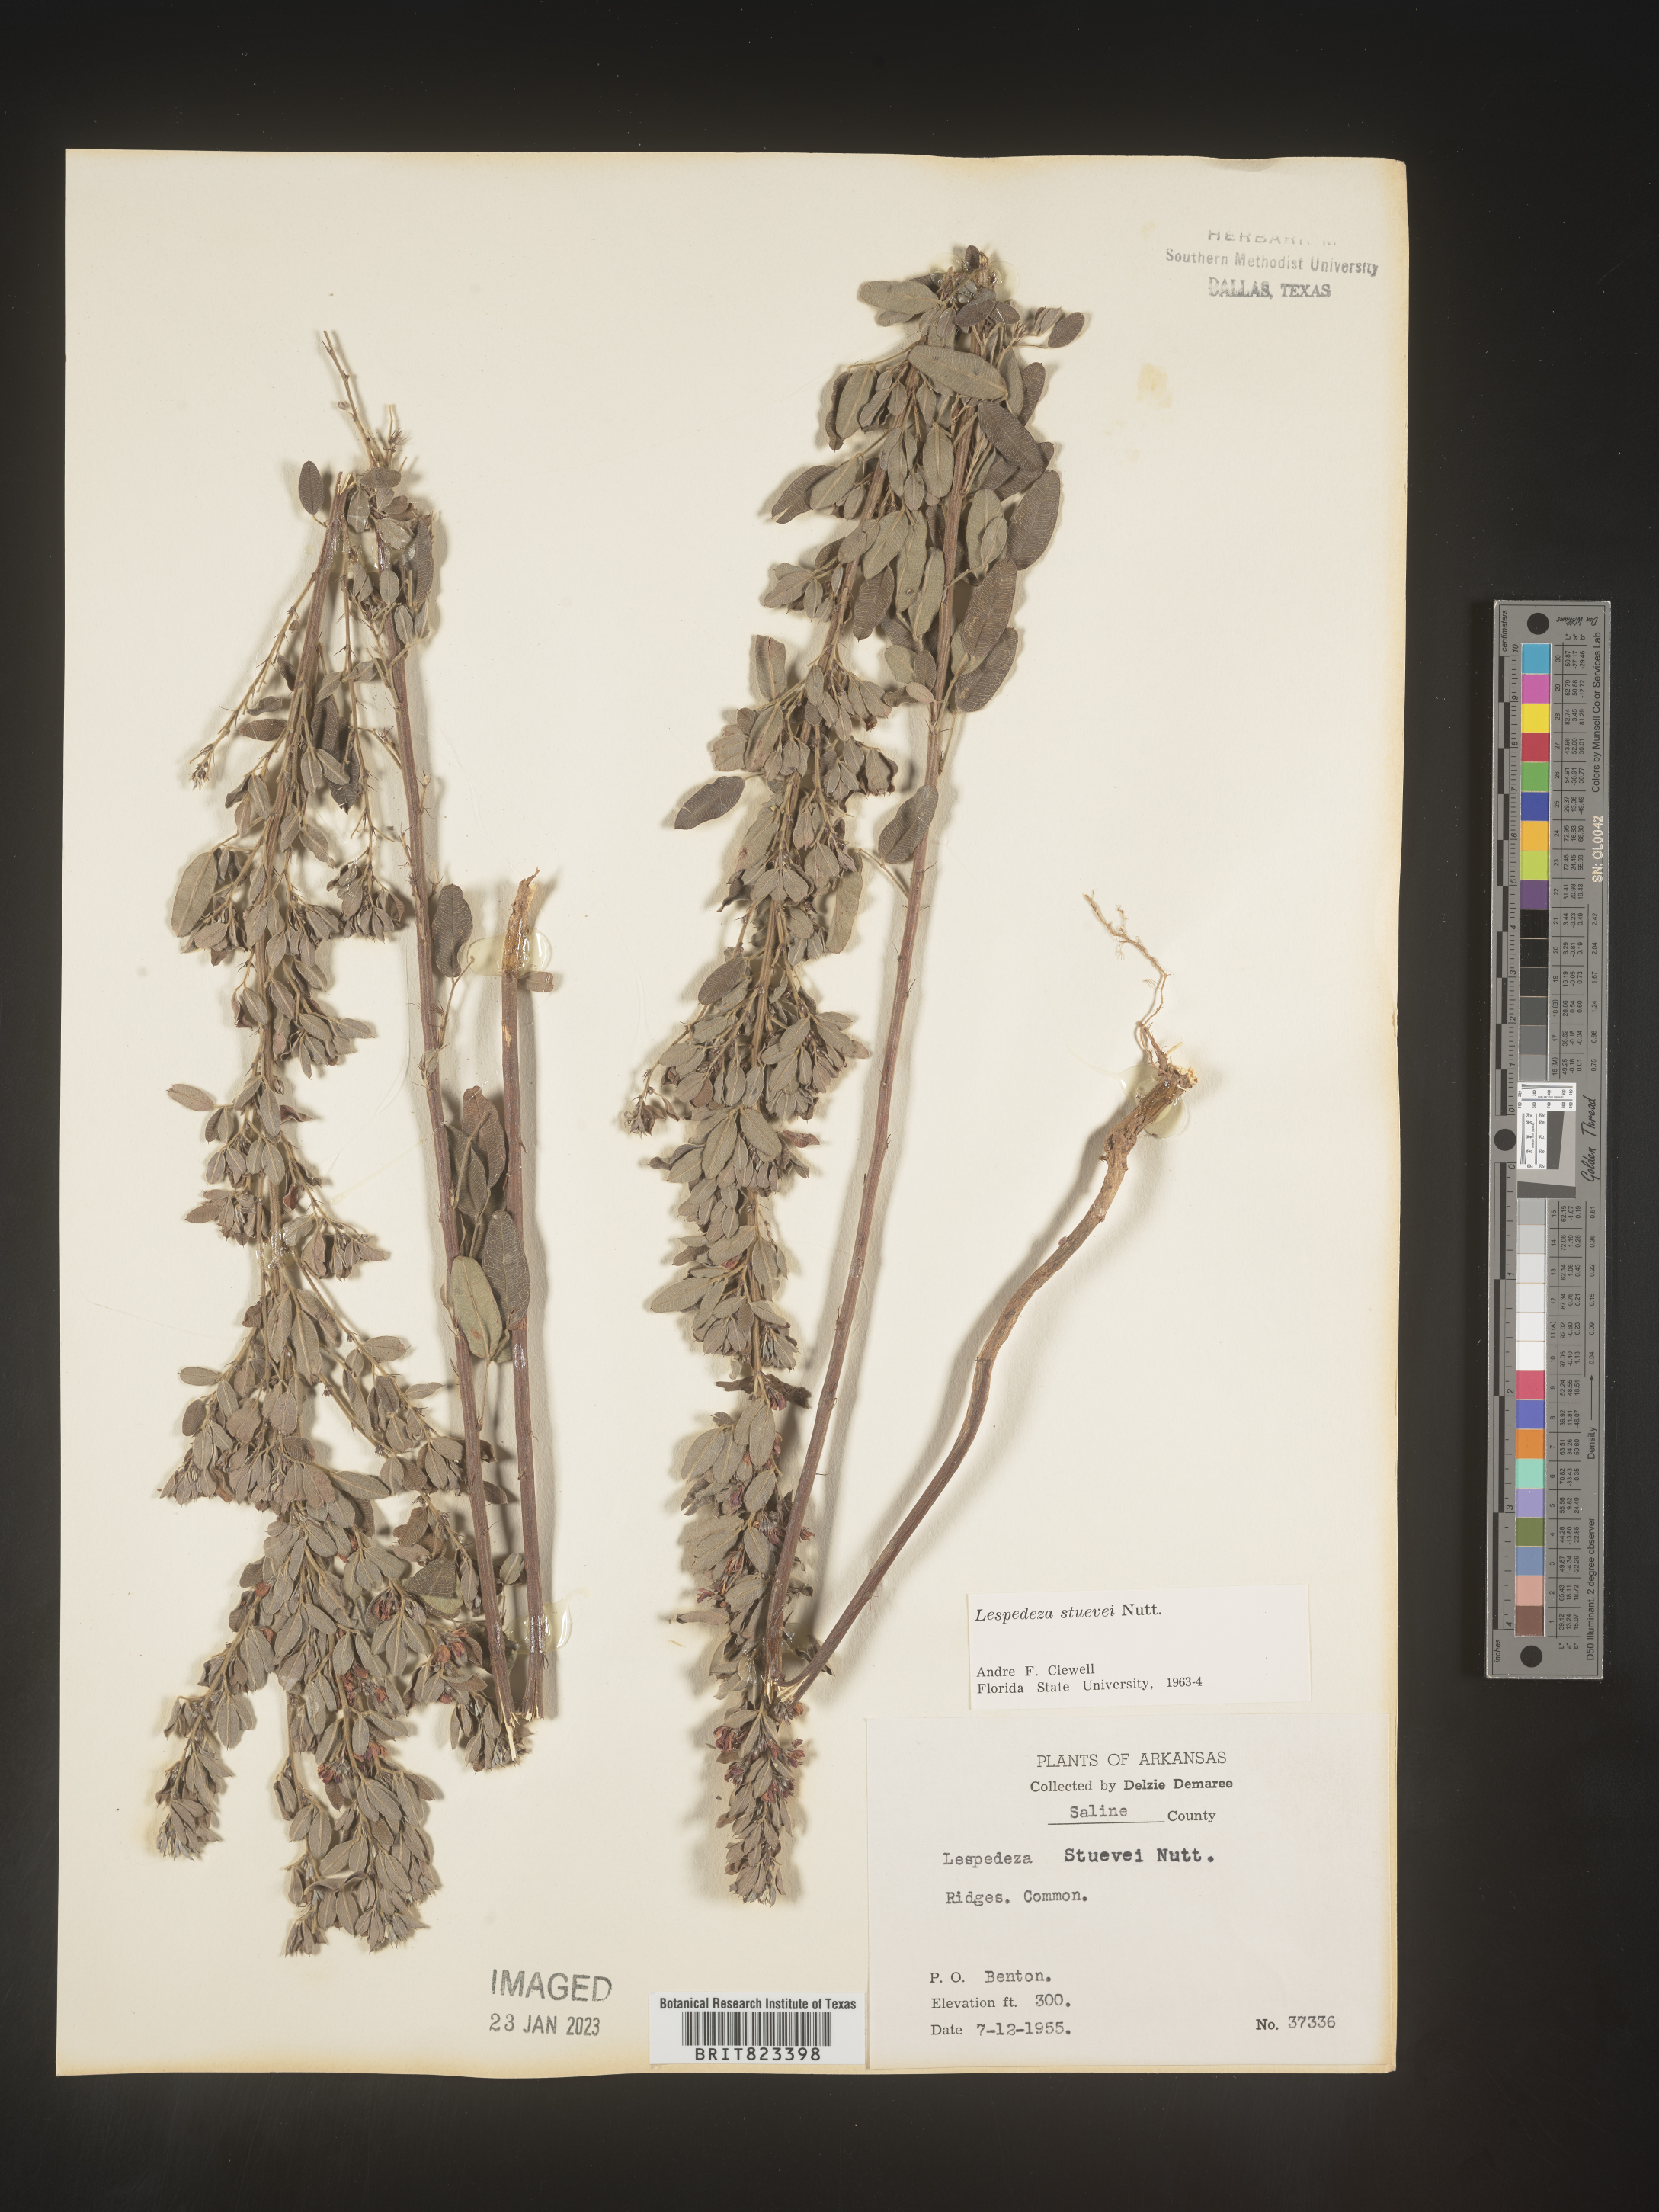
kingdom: Plantae
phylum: Tracheophyta
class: Magnoliopsida
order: Fabales
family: Fabaceae
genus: Lespedeza
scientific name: Lespedeza stuevei
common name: Tall bush-clover
